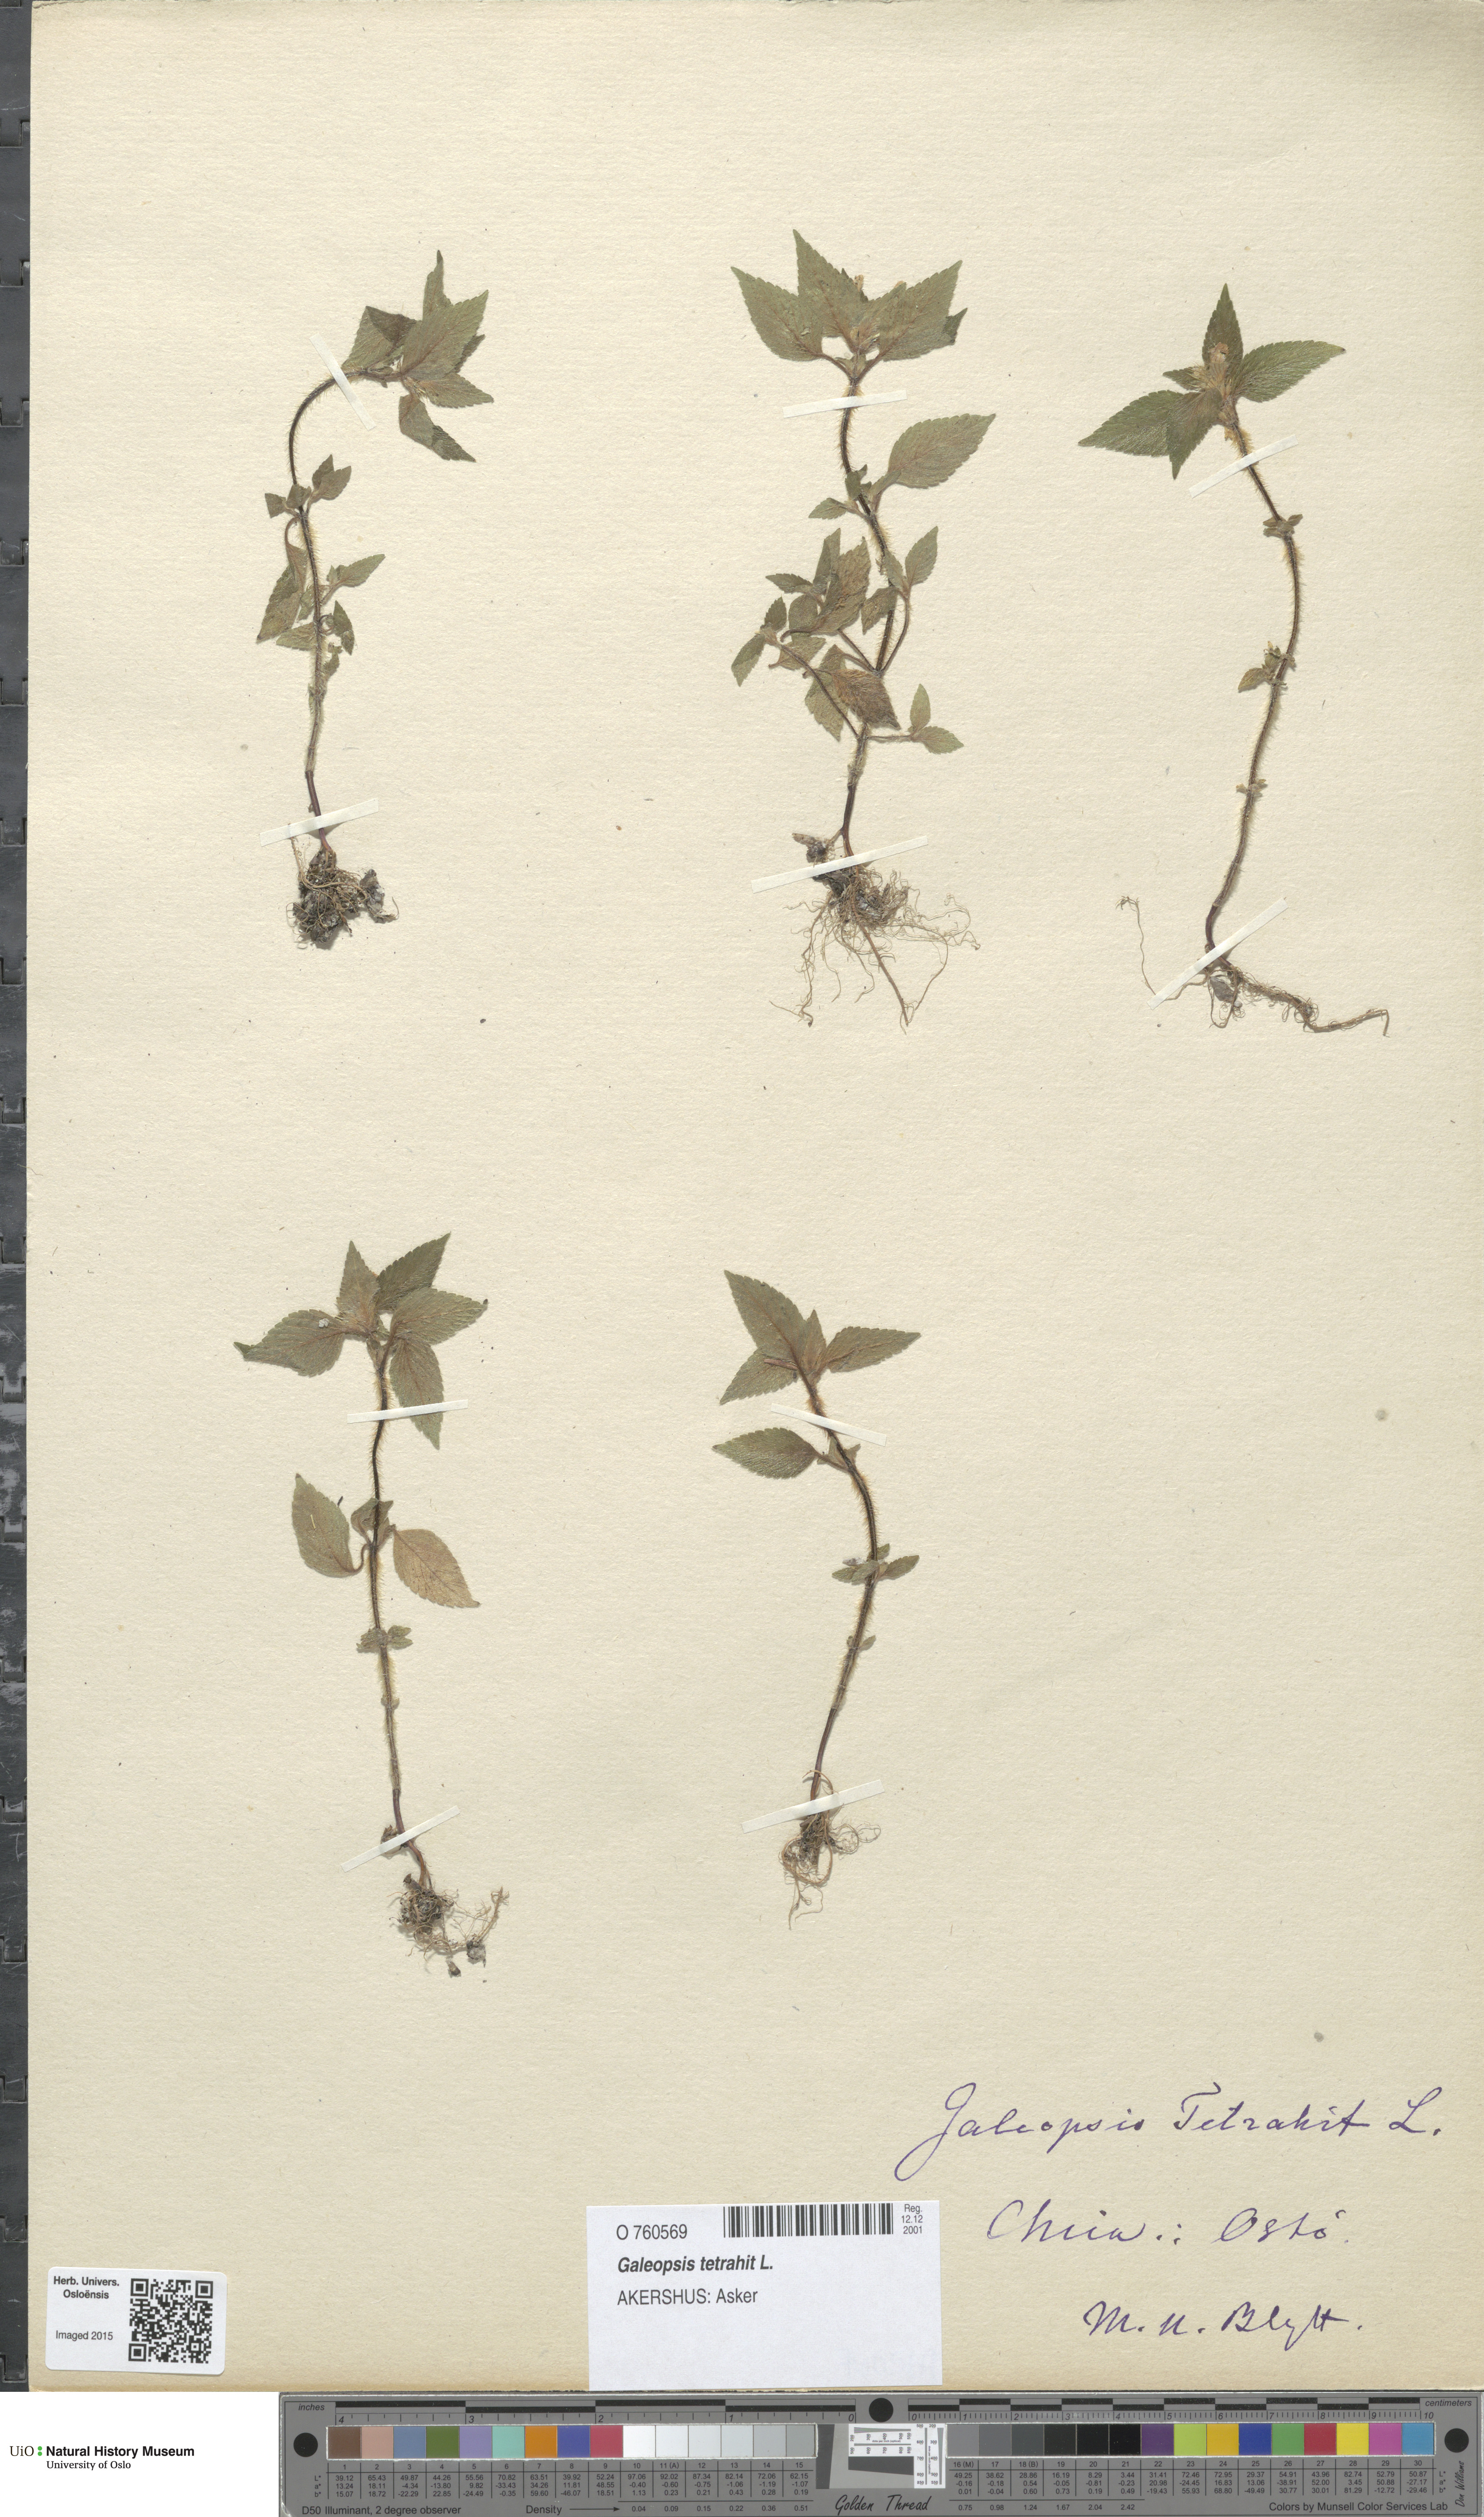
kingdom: Plantae
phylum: Tracheophyta
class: Magnoliopsida
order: Lamiales
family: Lamiaceae
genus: Galeopsis
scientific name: Galeopsis tetrahit
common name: Common hemp-nettle
